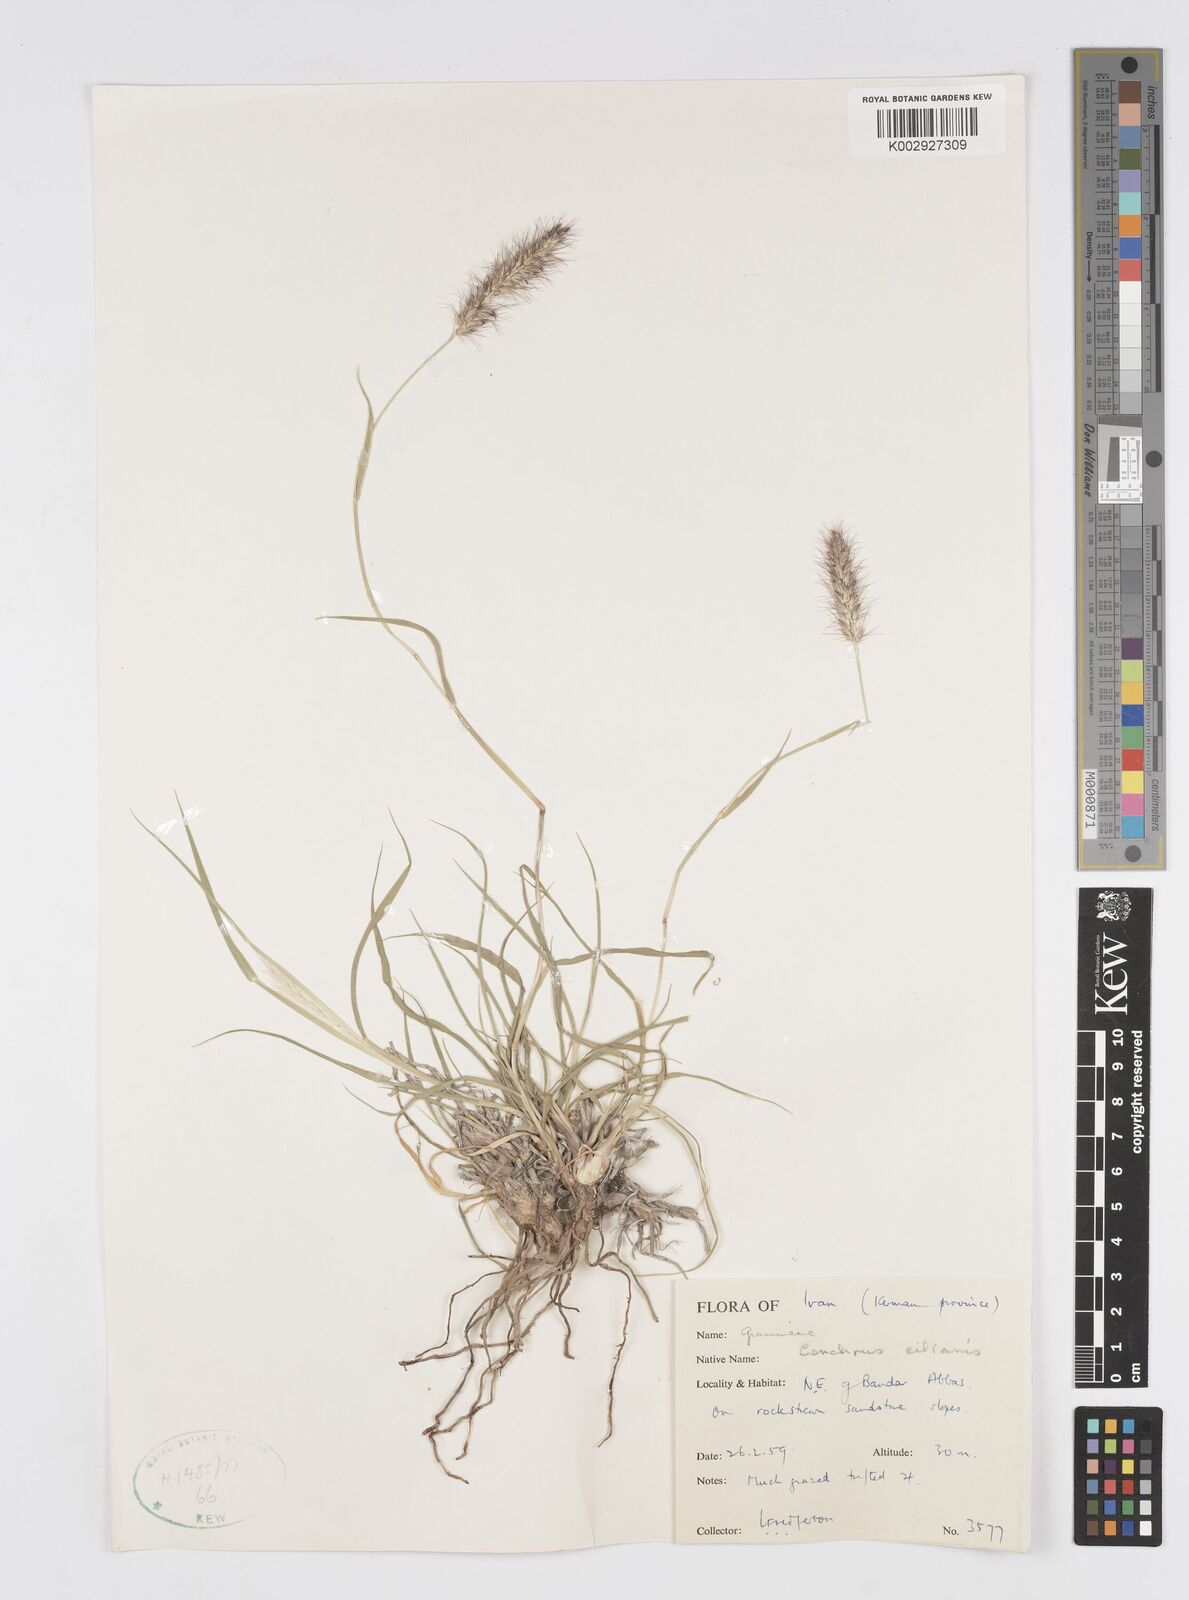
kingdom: Plantae
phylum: Tracheophyta
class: Liliopsida
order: Poales
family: Poaceae
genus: Cenchrus
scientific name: Cenchrus ciliaris
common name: Buffelgrass
